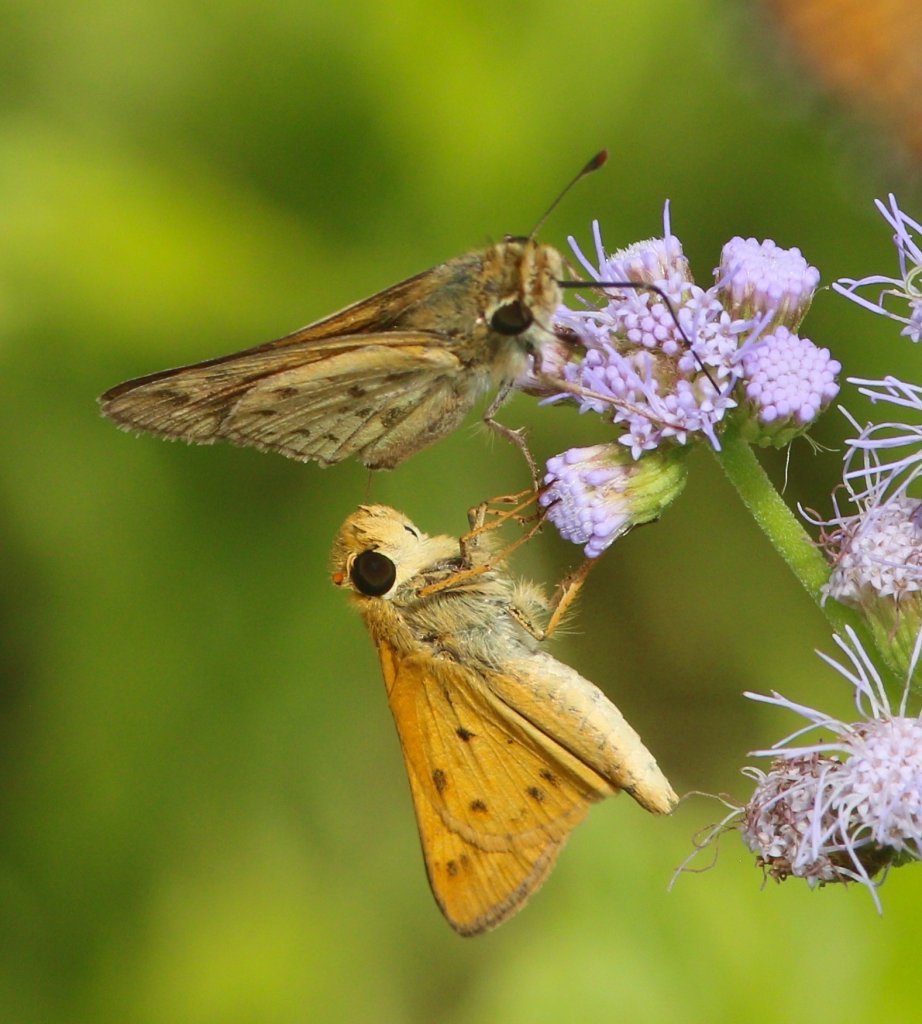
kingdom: Animalia
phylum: Arthropoda
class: Insecta
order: Lepidoptera
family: Hesperiidae
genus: Hylephila
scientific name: Hylephila phyleus
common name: Fiery Skipper
